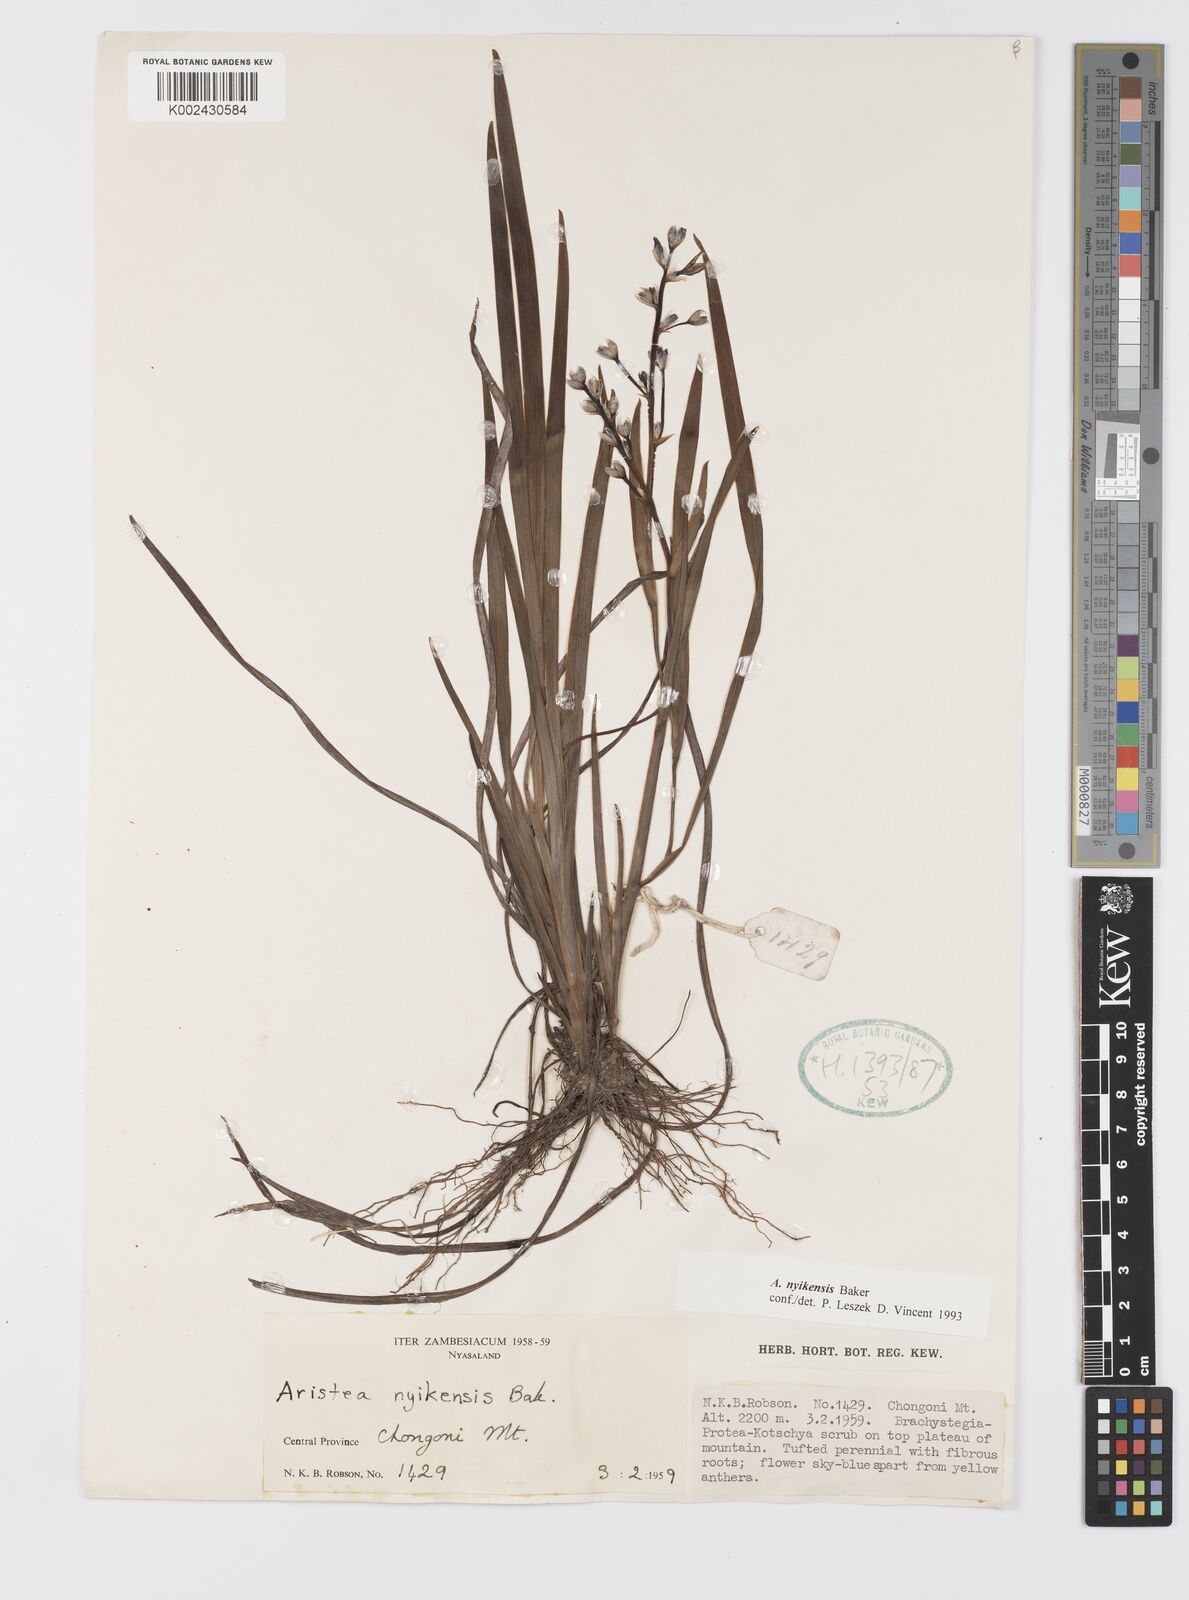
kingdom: Plantae
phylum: Tracheophyta
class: Liliopsida
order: Asparagales
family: Iridaceae
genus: Aristea
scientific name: Aristea nyikensis
